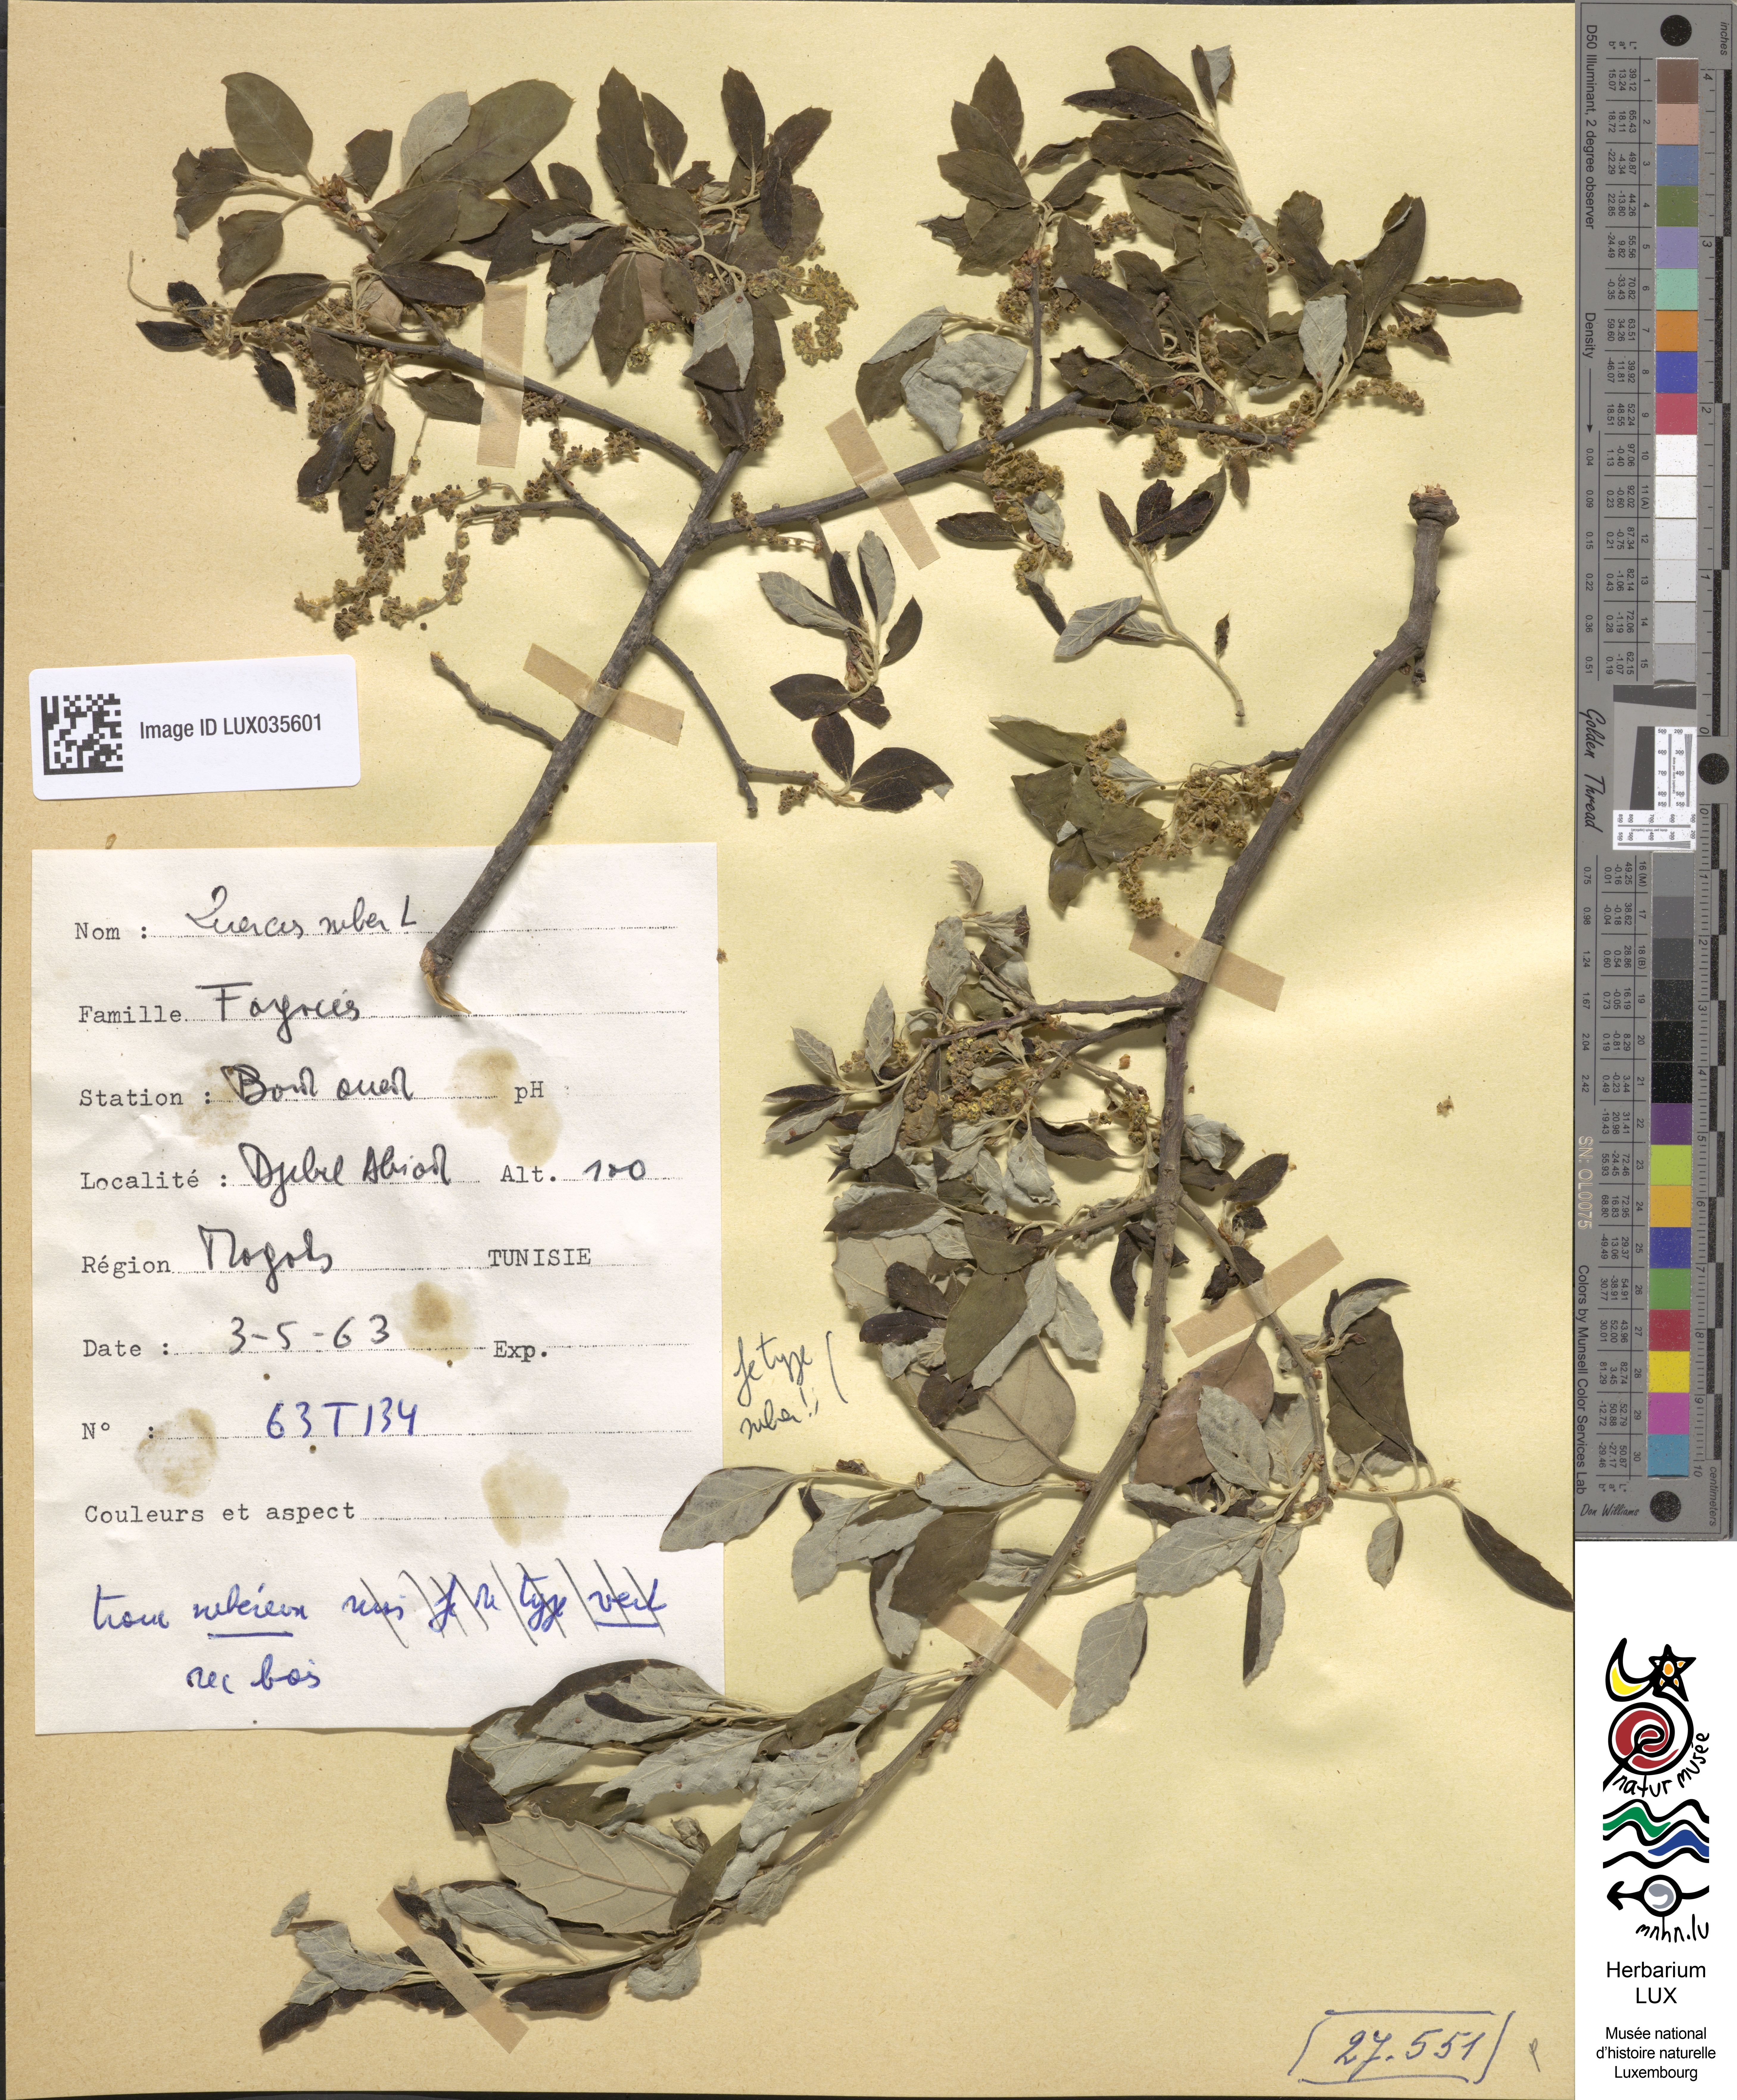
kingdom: Plantae
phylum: Tracheophyta
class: Magnoliopsida
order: Fagales
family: Fagaceae
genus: Quercus
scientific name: Quercus suber
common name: Cork oak
